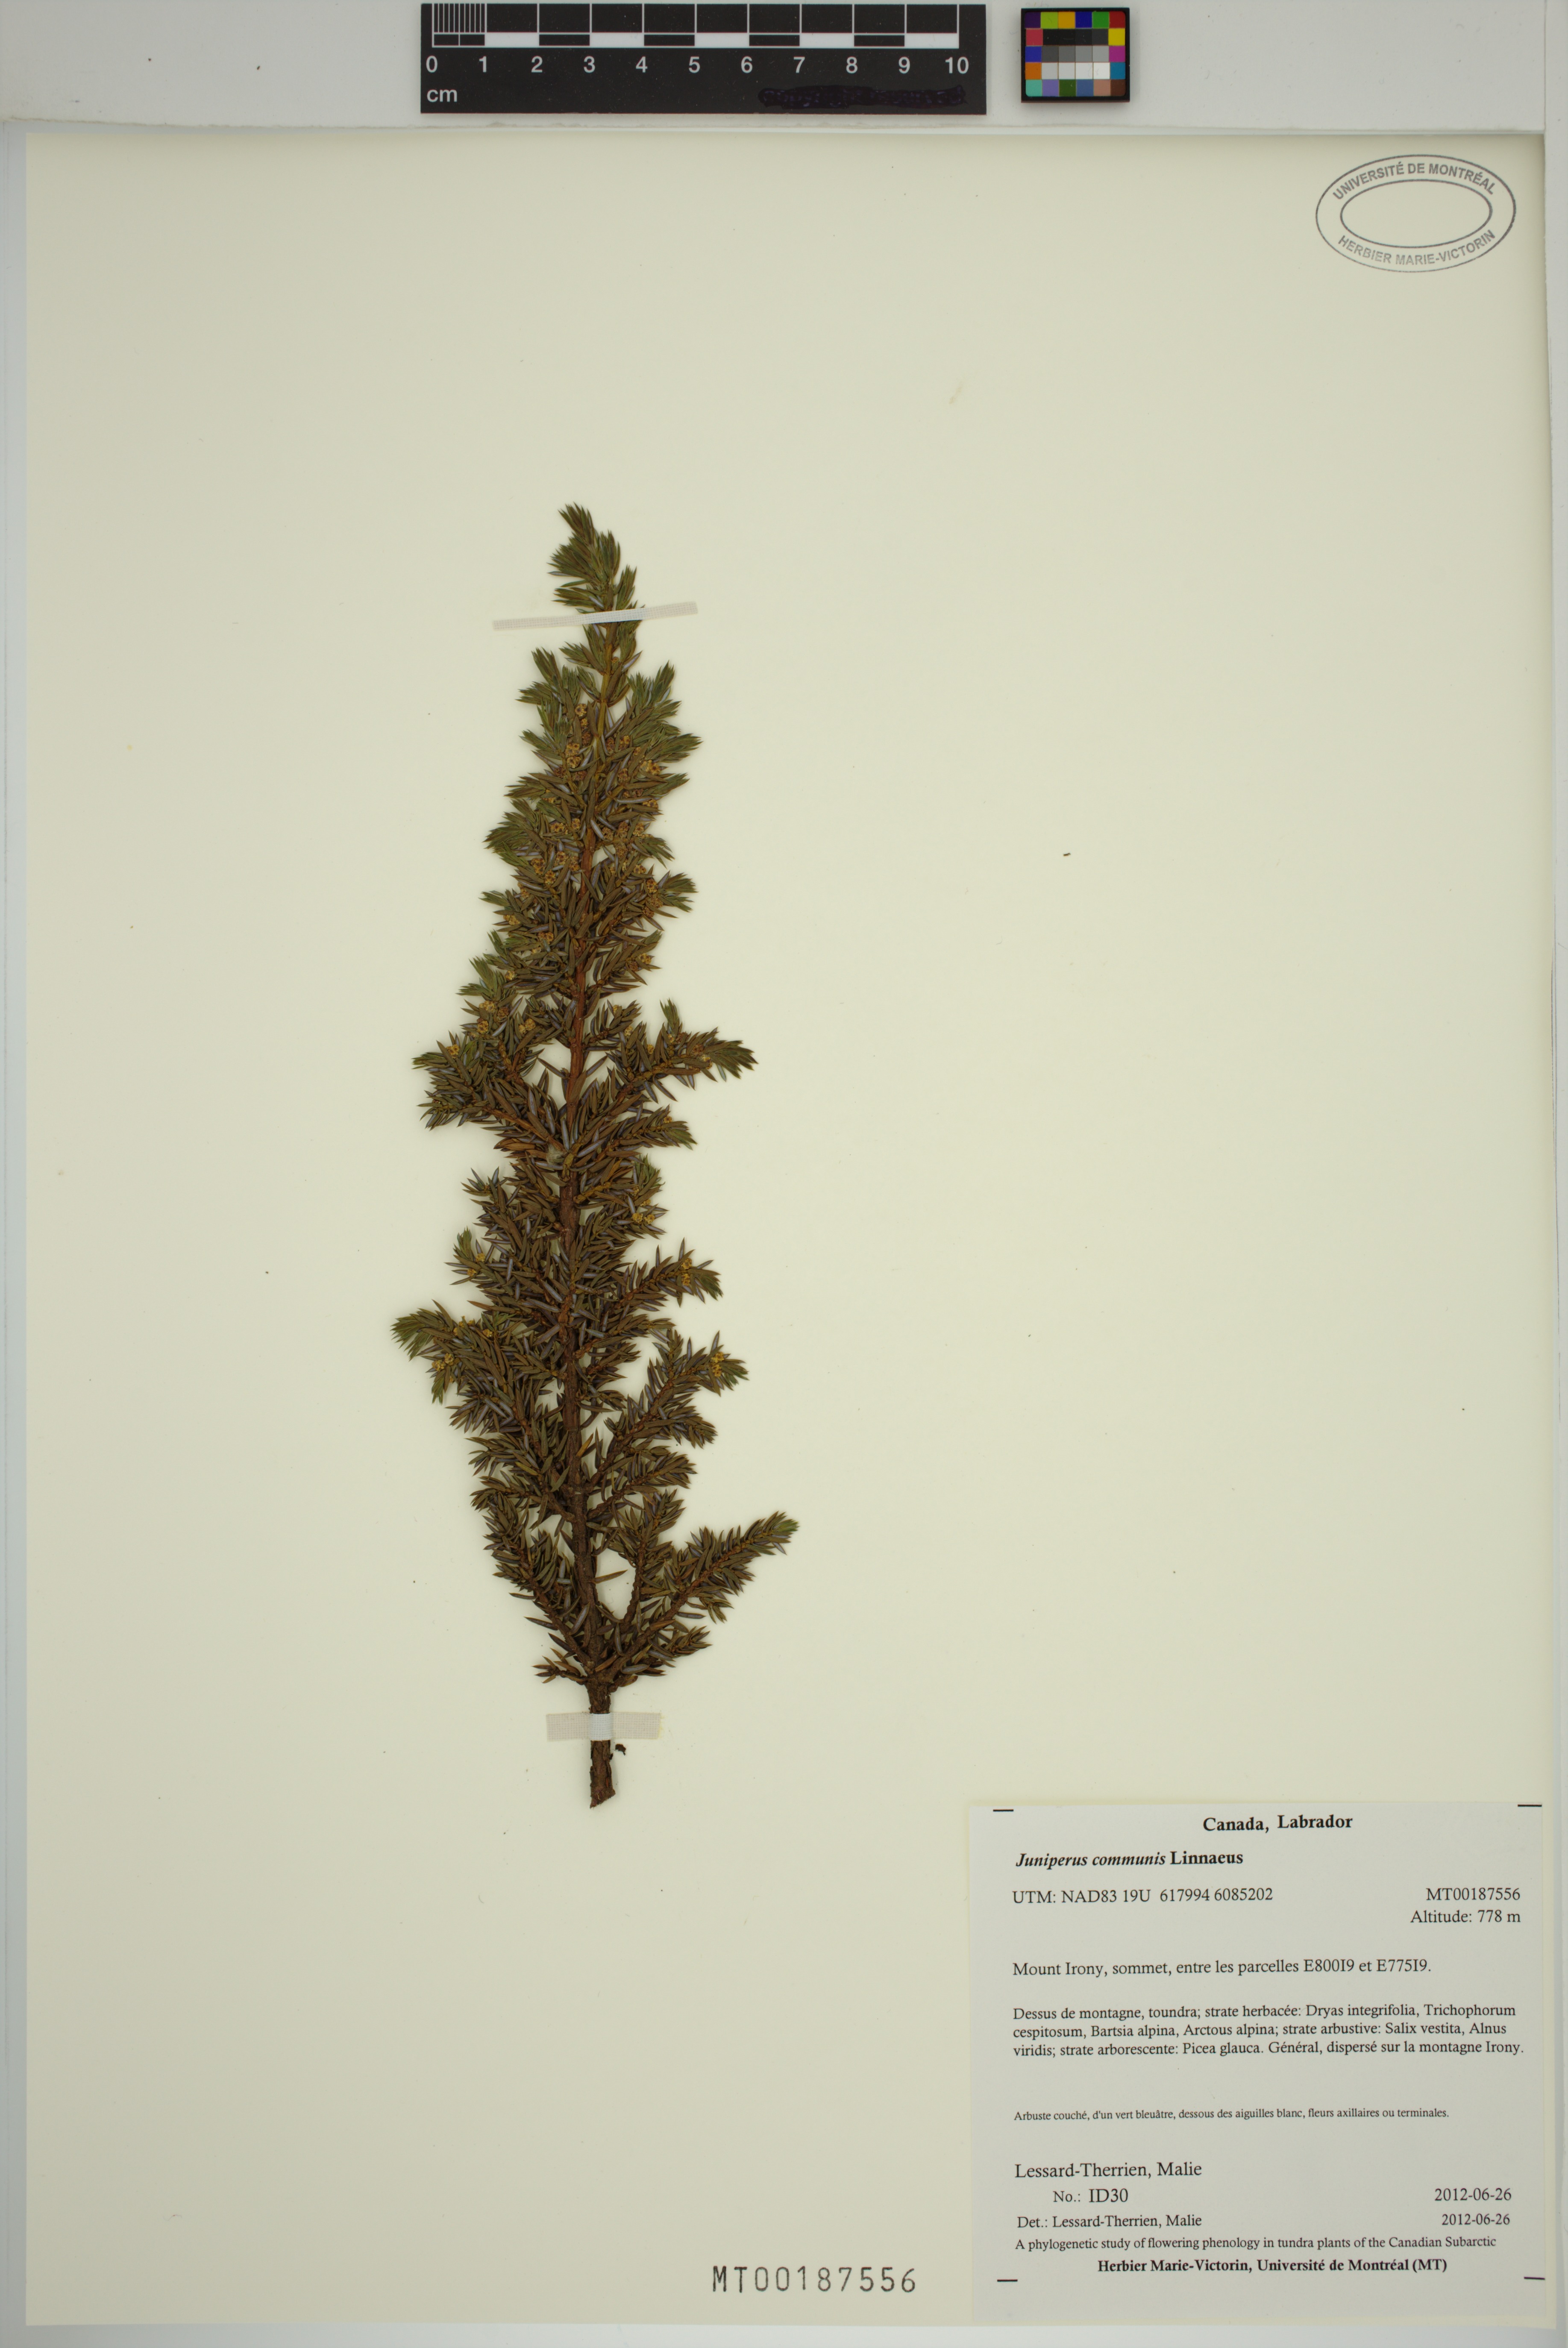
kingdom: Plantae
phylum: Tracheophyta
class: Pinopsida
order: Pinales
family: Cupressaceae
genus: Juniperus
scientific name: Juniperus communis
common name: Common juniper
